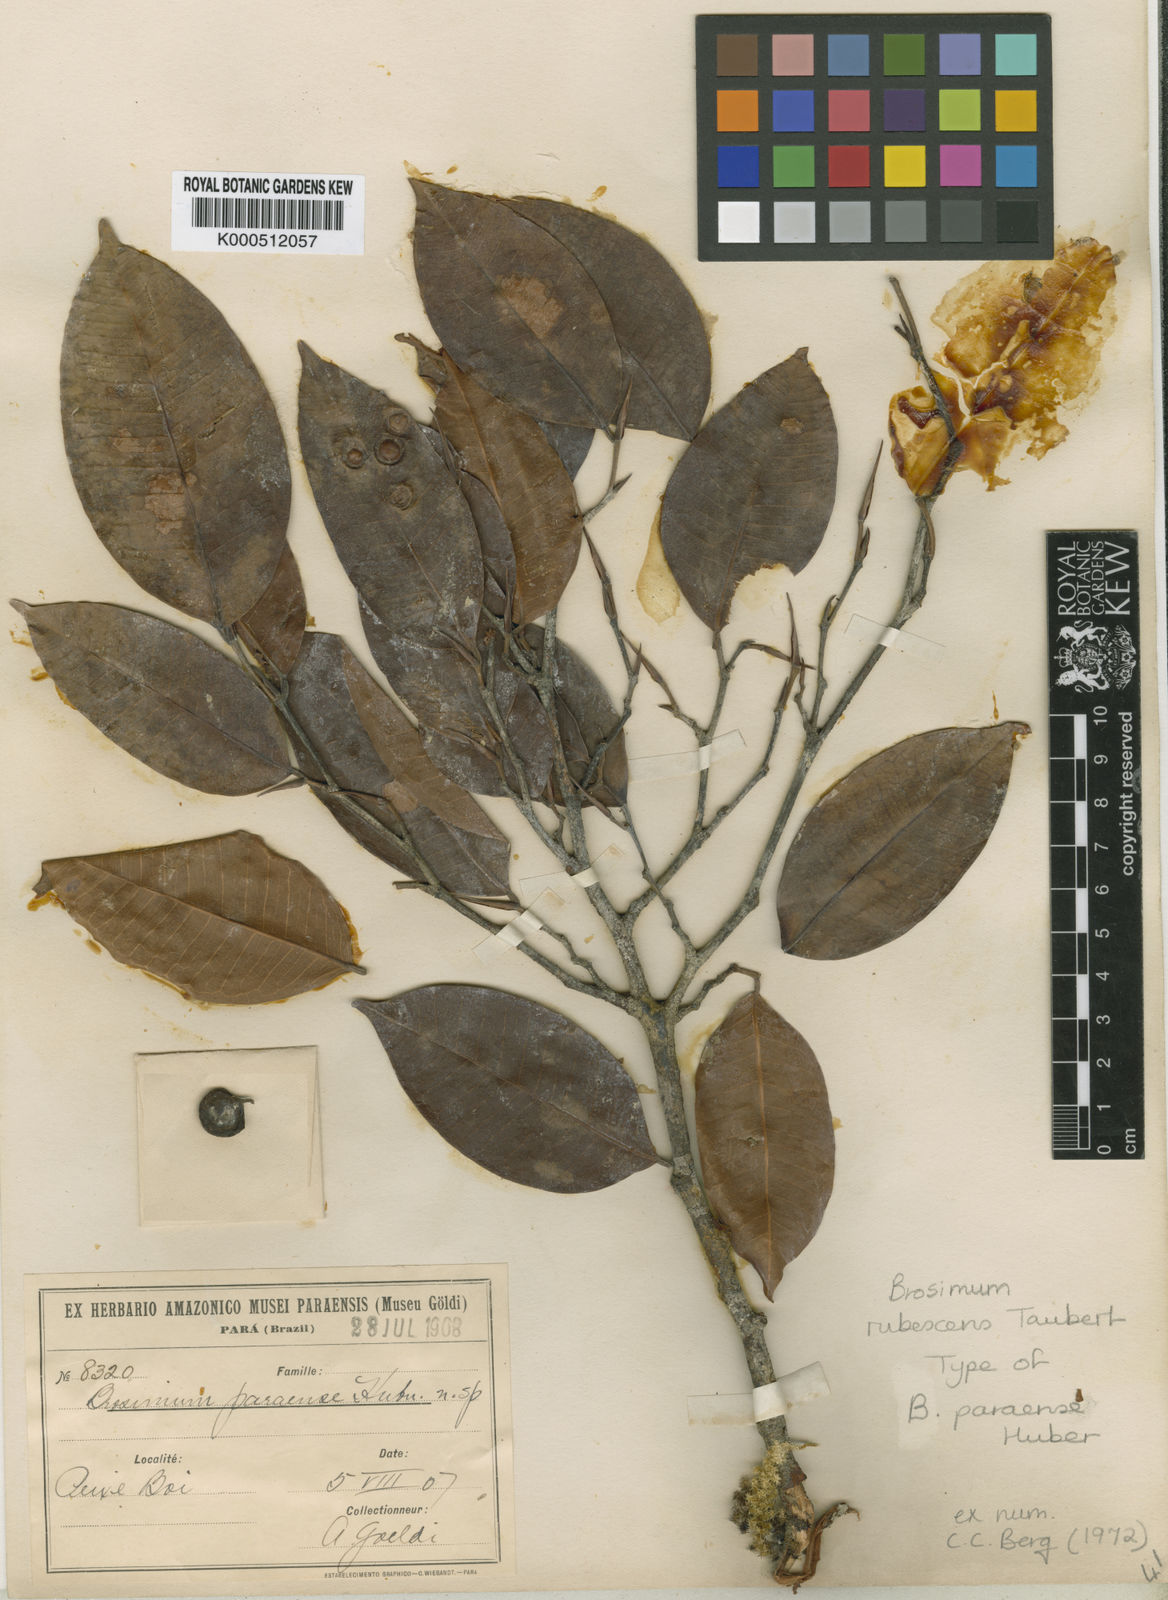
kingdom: Plantae
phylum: Tracheophyta
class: Magnoliopsida
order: Rosales
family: Moraceae
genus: Brosimum
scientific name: Brosimum rubescens
